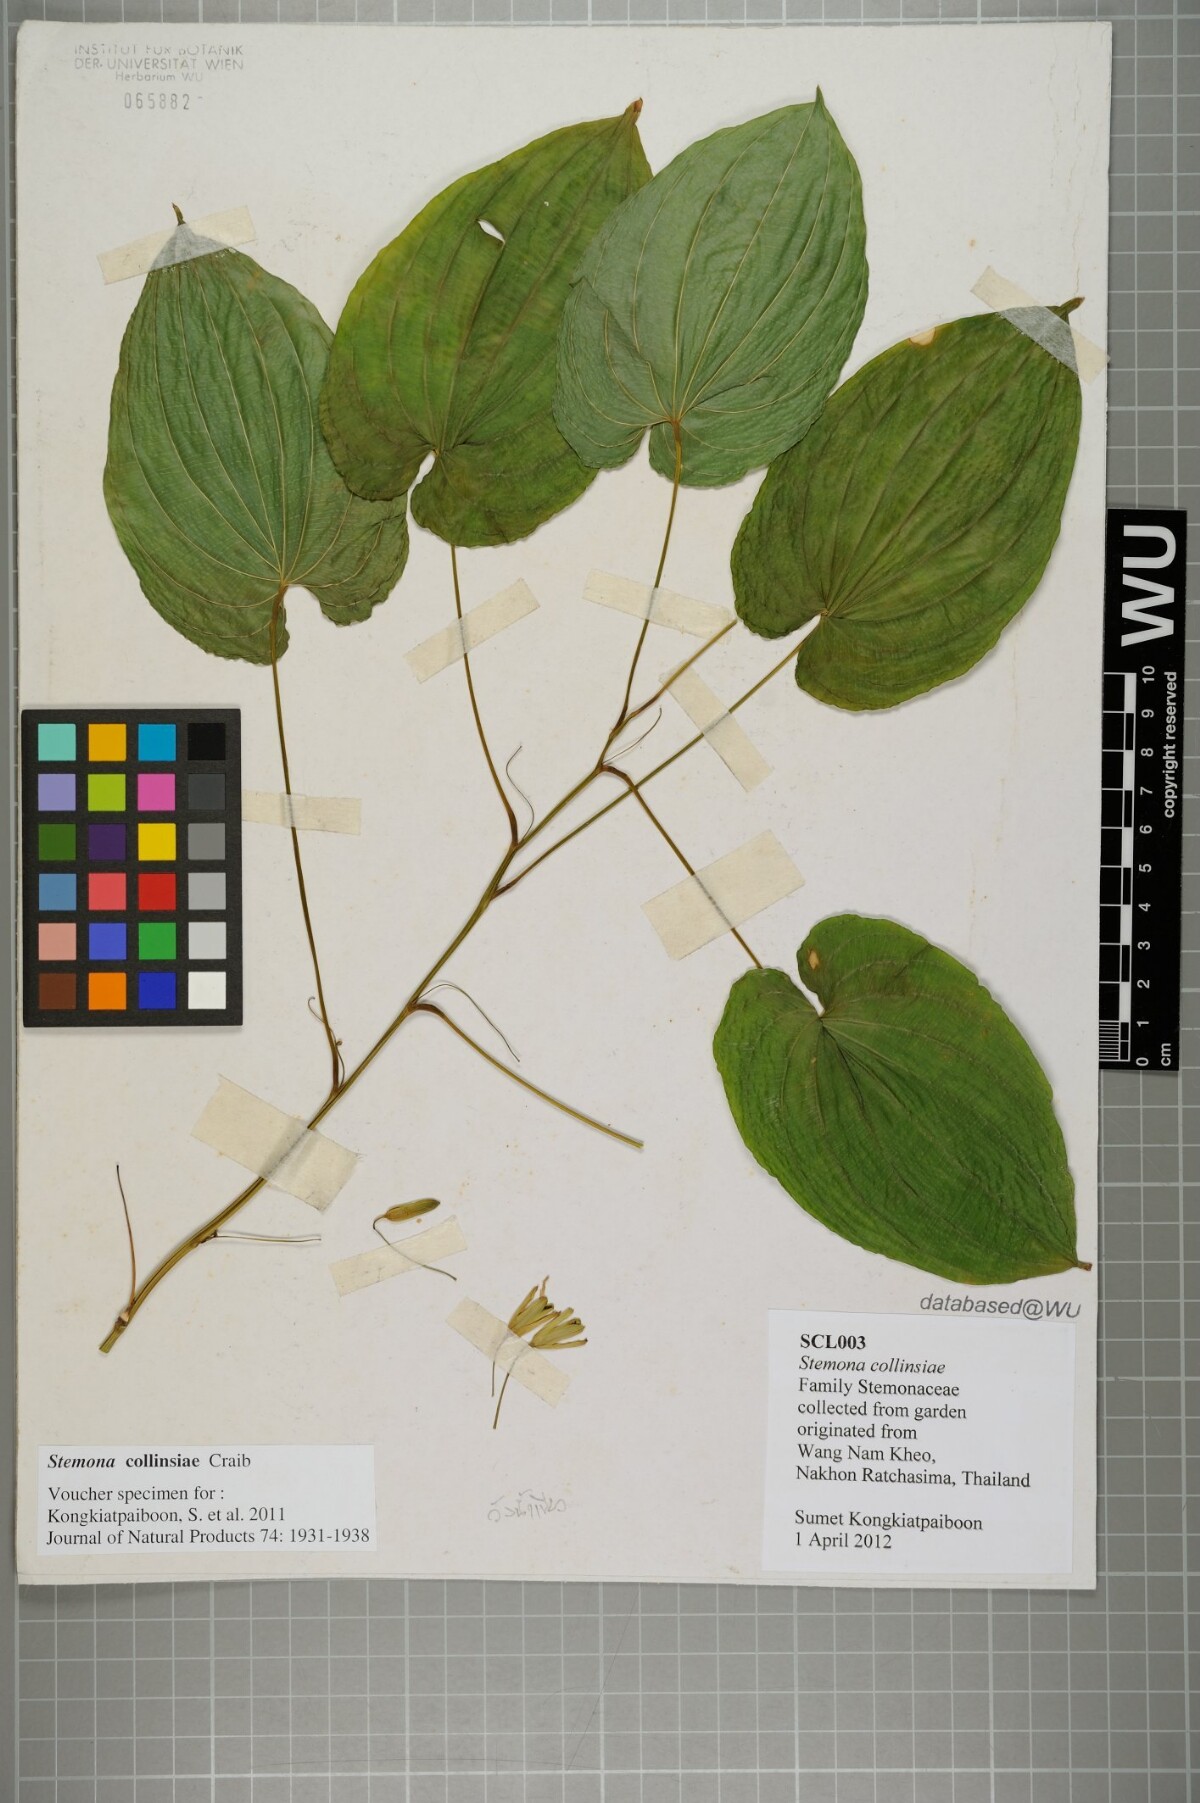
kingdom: Plantae
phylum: Tracheophyta
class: Liliopsida
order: Pandanales
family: Stemonaceae
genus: Stemona
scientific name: Stemona collinsiae
